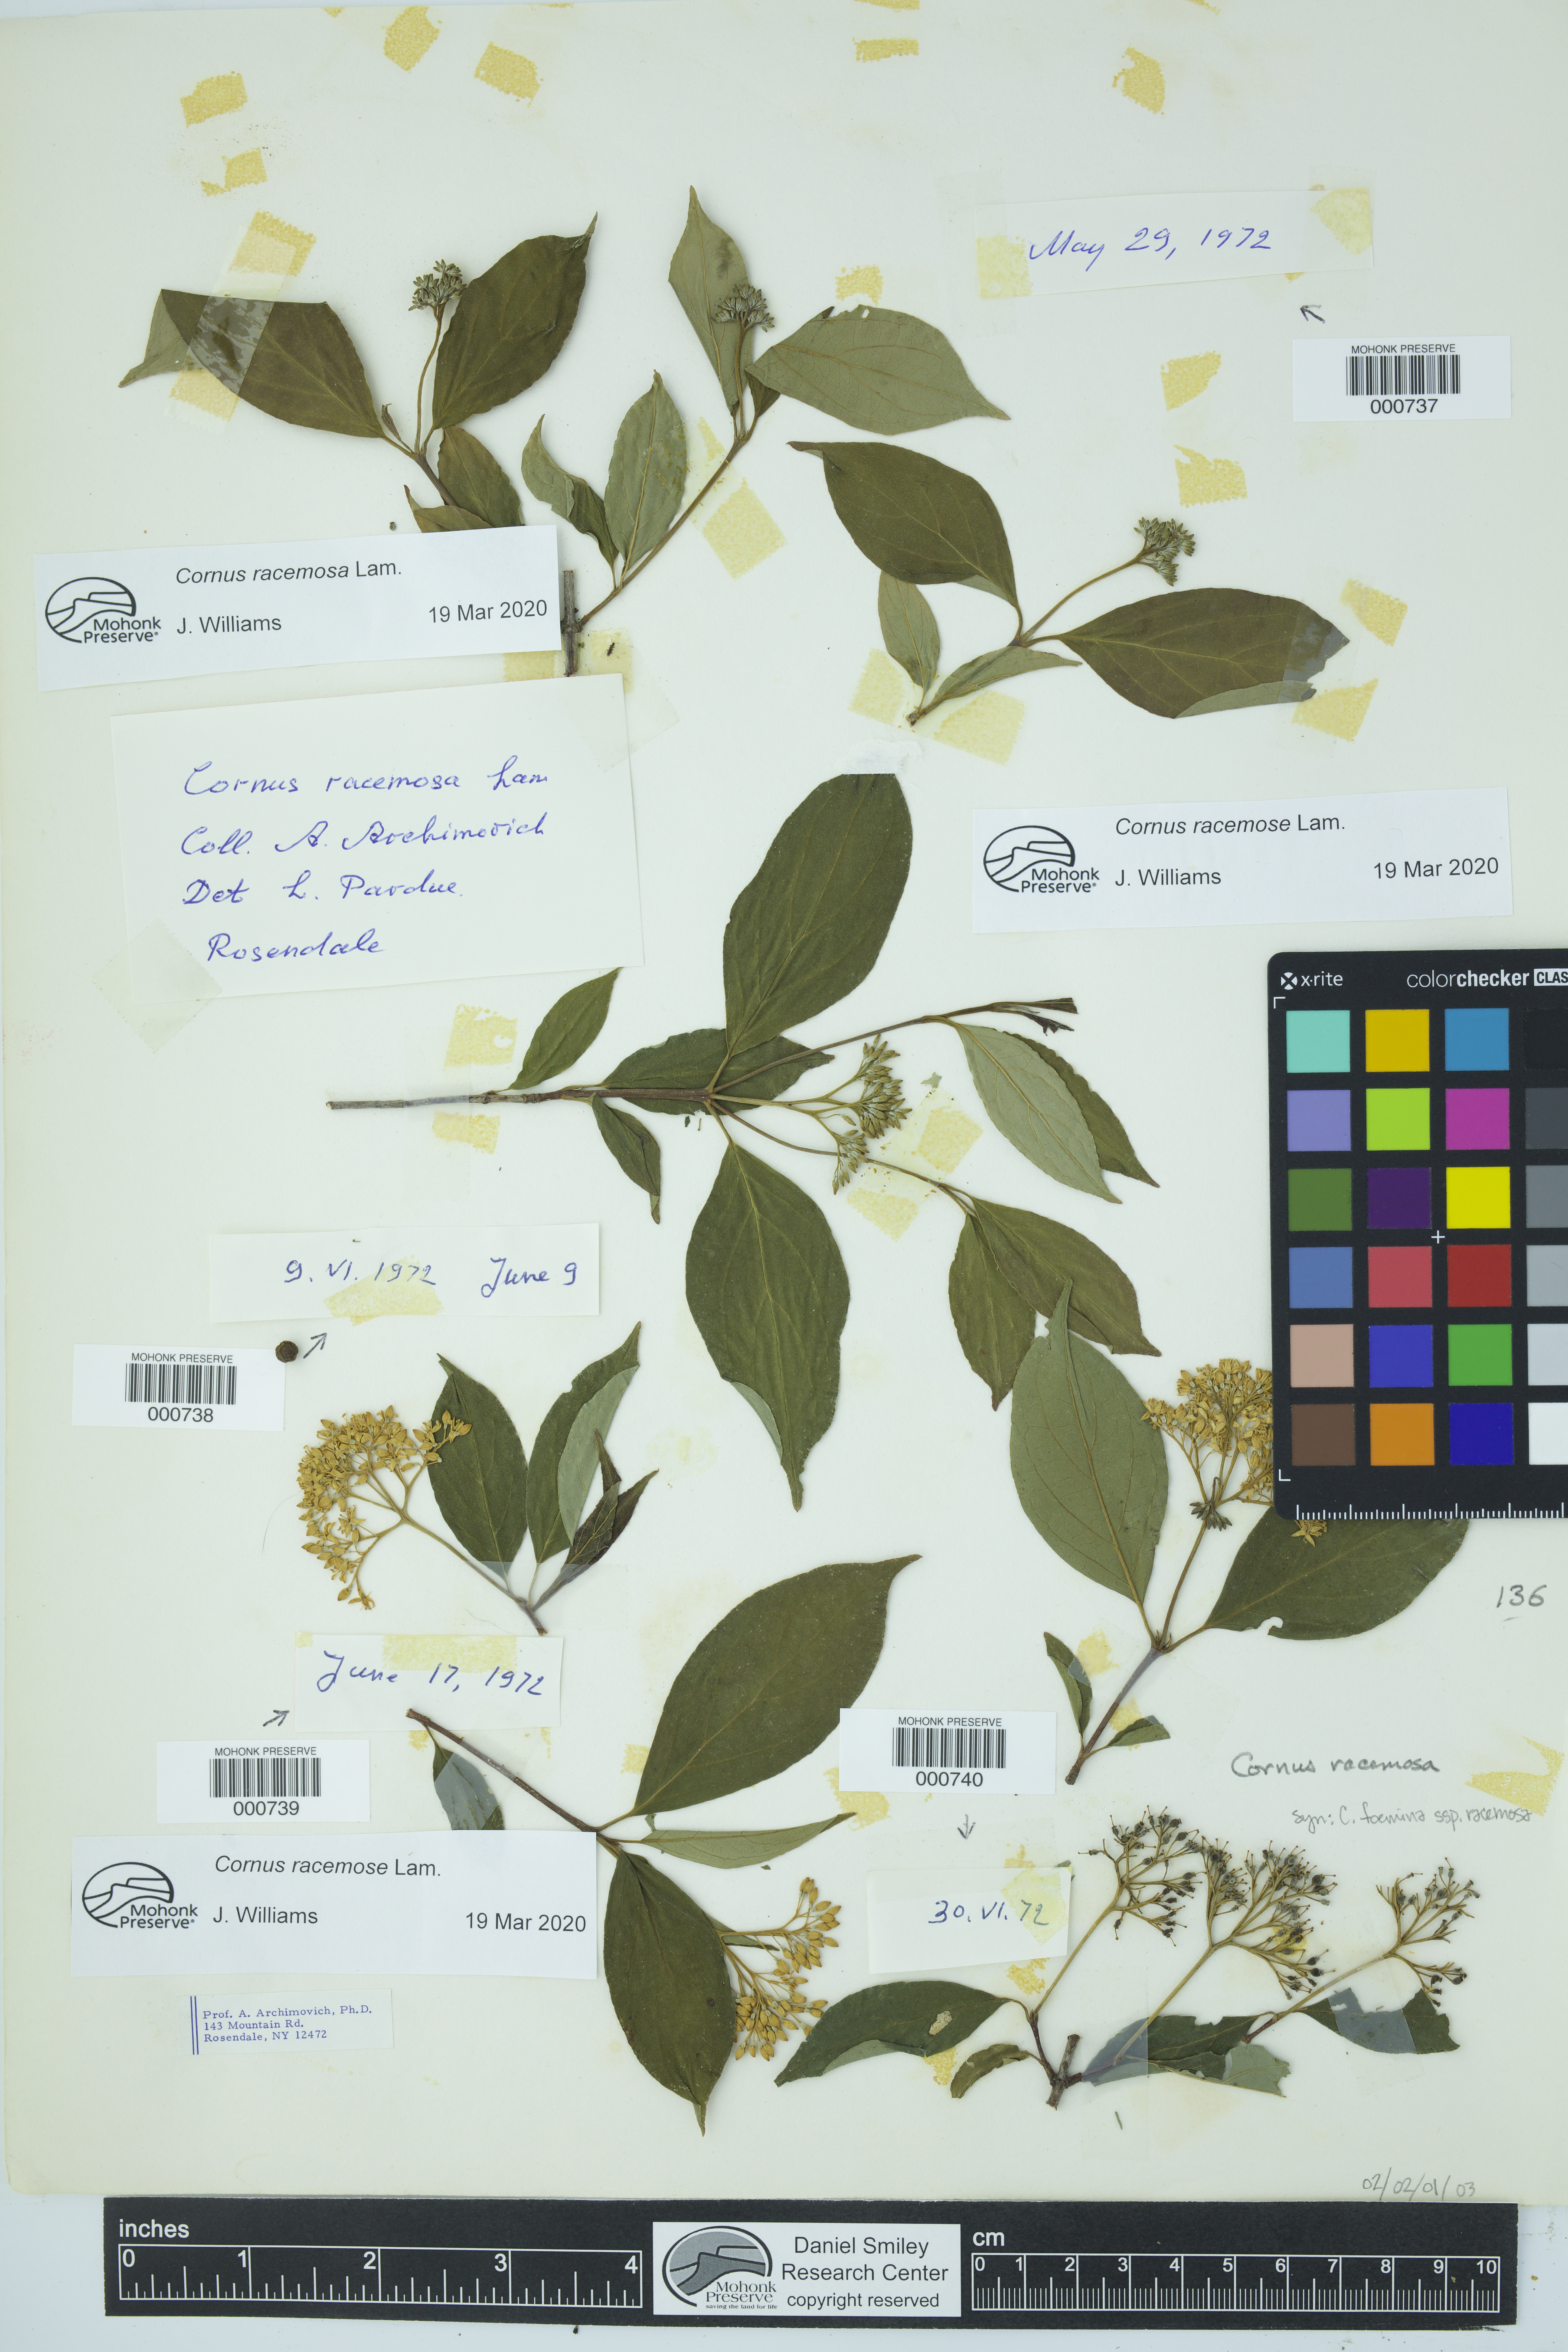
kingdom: Plantae
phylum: Tracheophyta
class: Magnoliopsida
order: Cornales
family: Cornaceae
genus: Cornus
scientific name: Cornus racemosa
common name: Panicled dogwood
